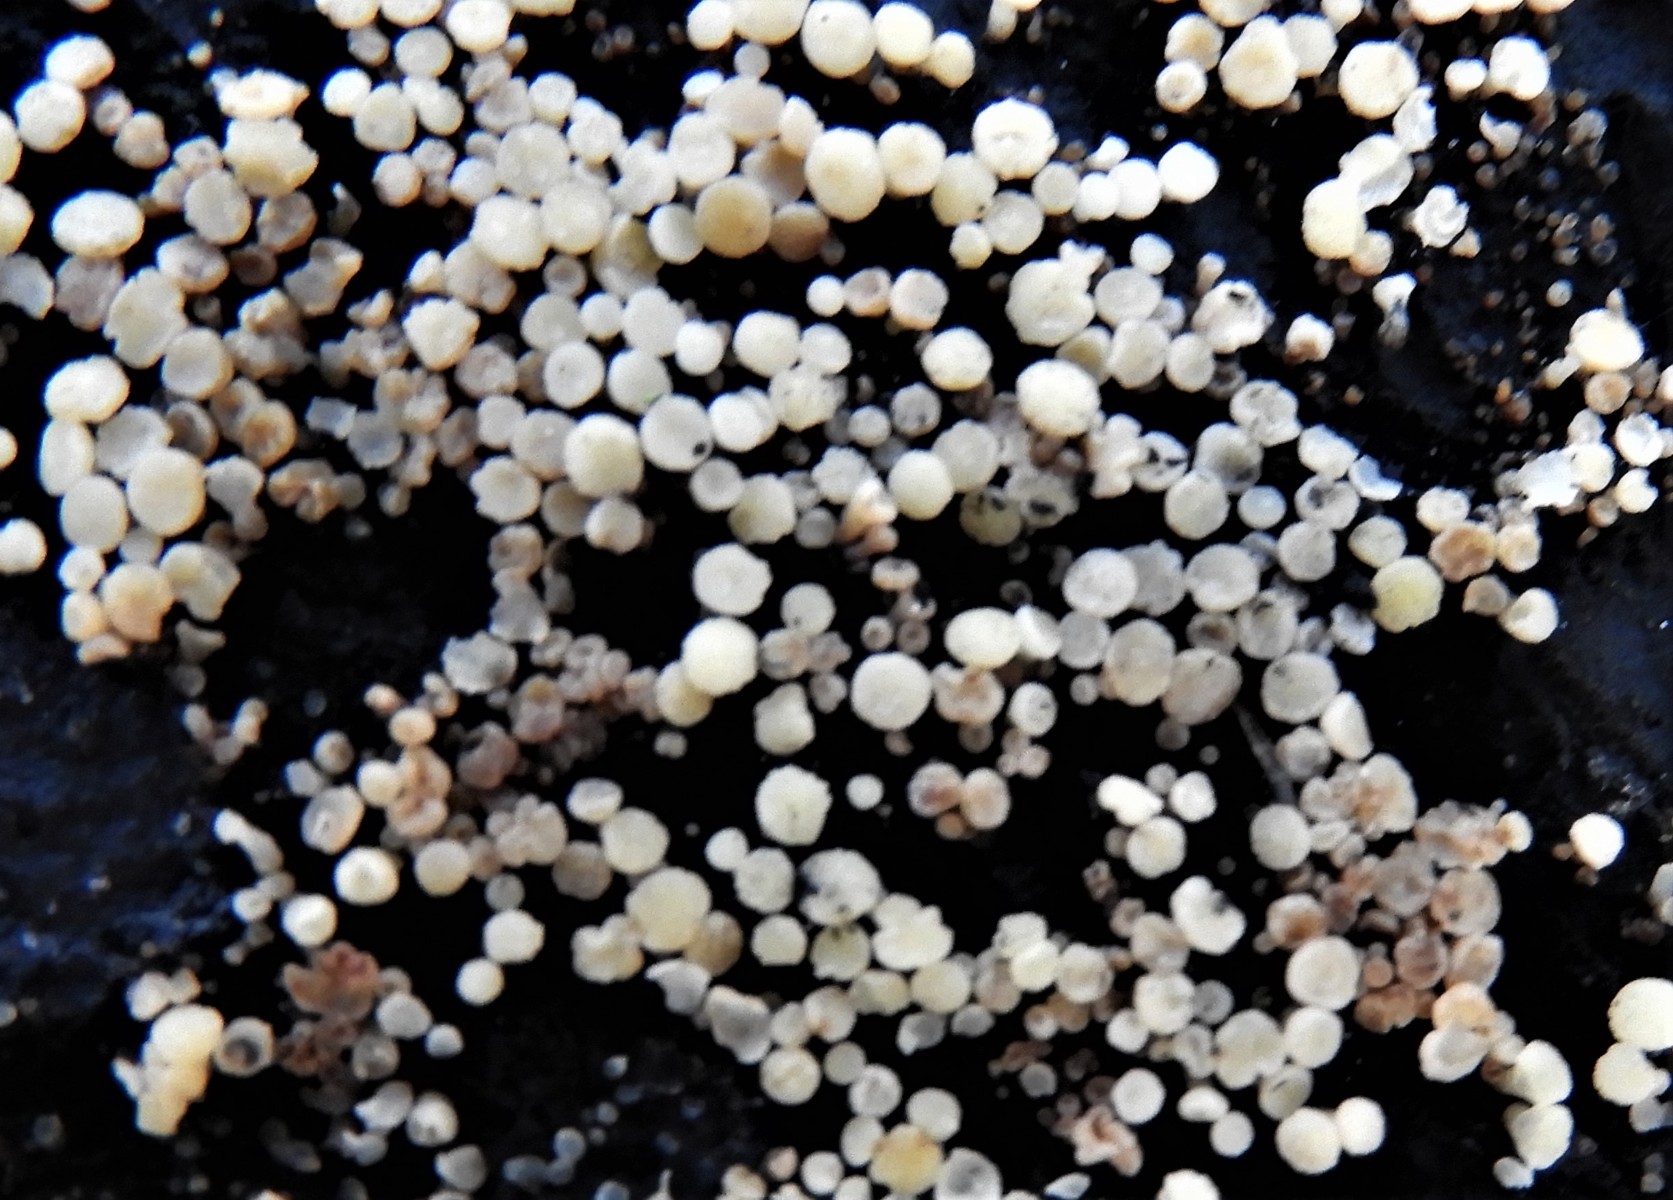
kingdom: Fungi
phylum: Ascomycota
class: Leotiomycetes
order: Helotiales
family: Helotiaceae
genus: Bispora
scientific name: Bispora pallescens
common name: måtte-snitskive
